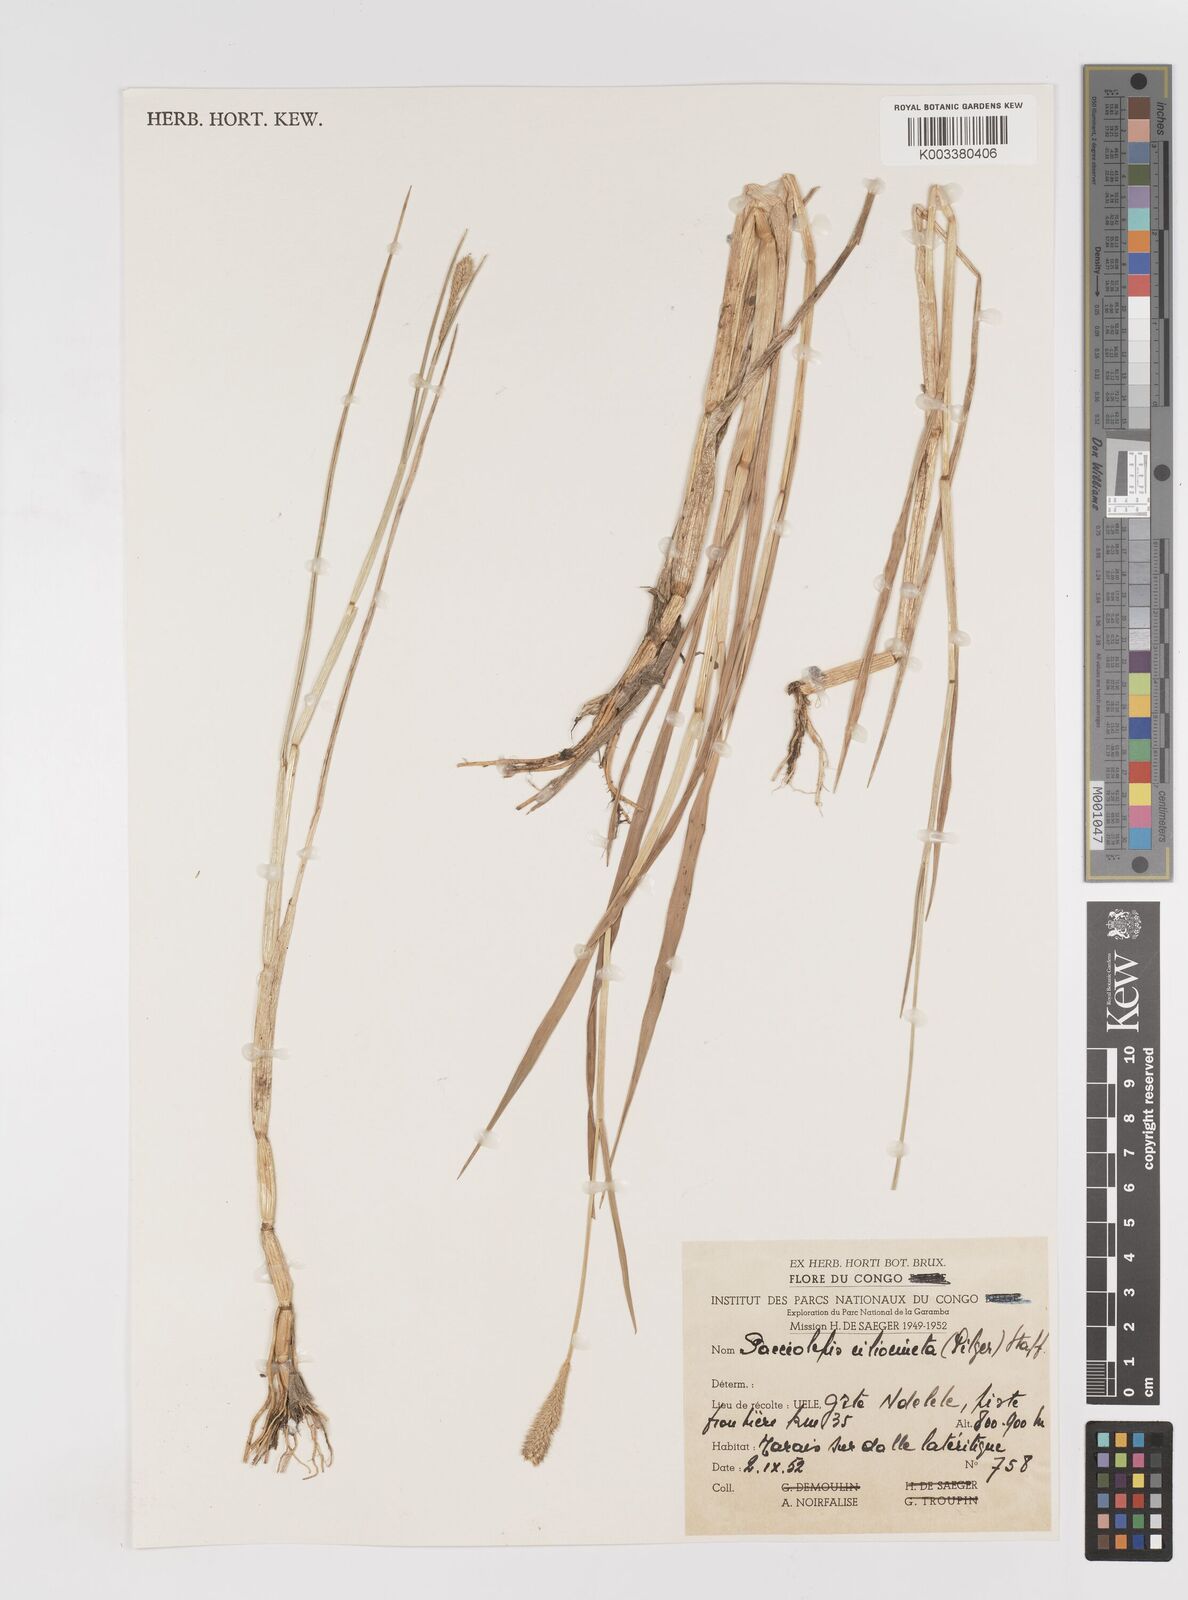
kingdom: Plantae
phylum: Tracheophyta
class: Liliopsida
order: Poales
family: Poaceae
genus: Sacciolepis
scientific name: Sacciolepis ciliocincta
